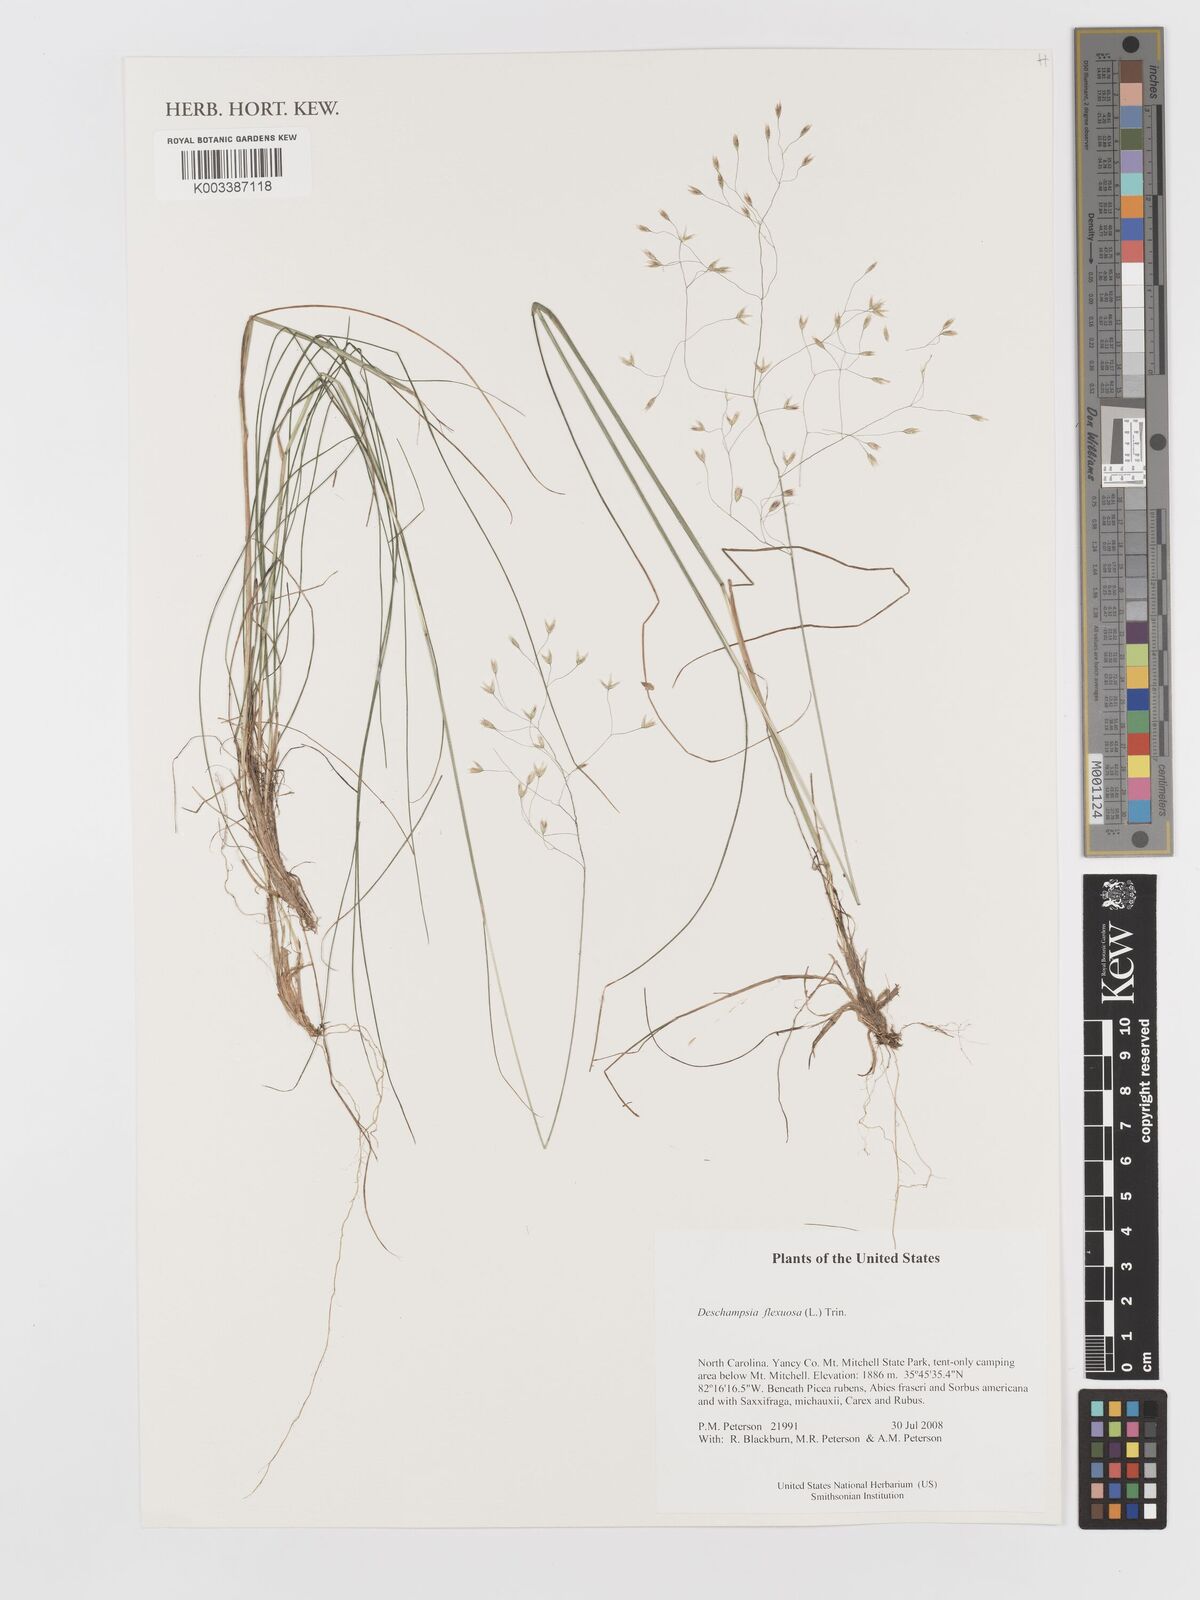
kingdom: Plantae
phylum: Tracheophyta
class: Liliopsida
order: Poales
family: Poaceae
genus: Avenella
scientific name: Avenella flexuosa
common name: Wavy hairgrass
